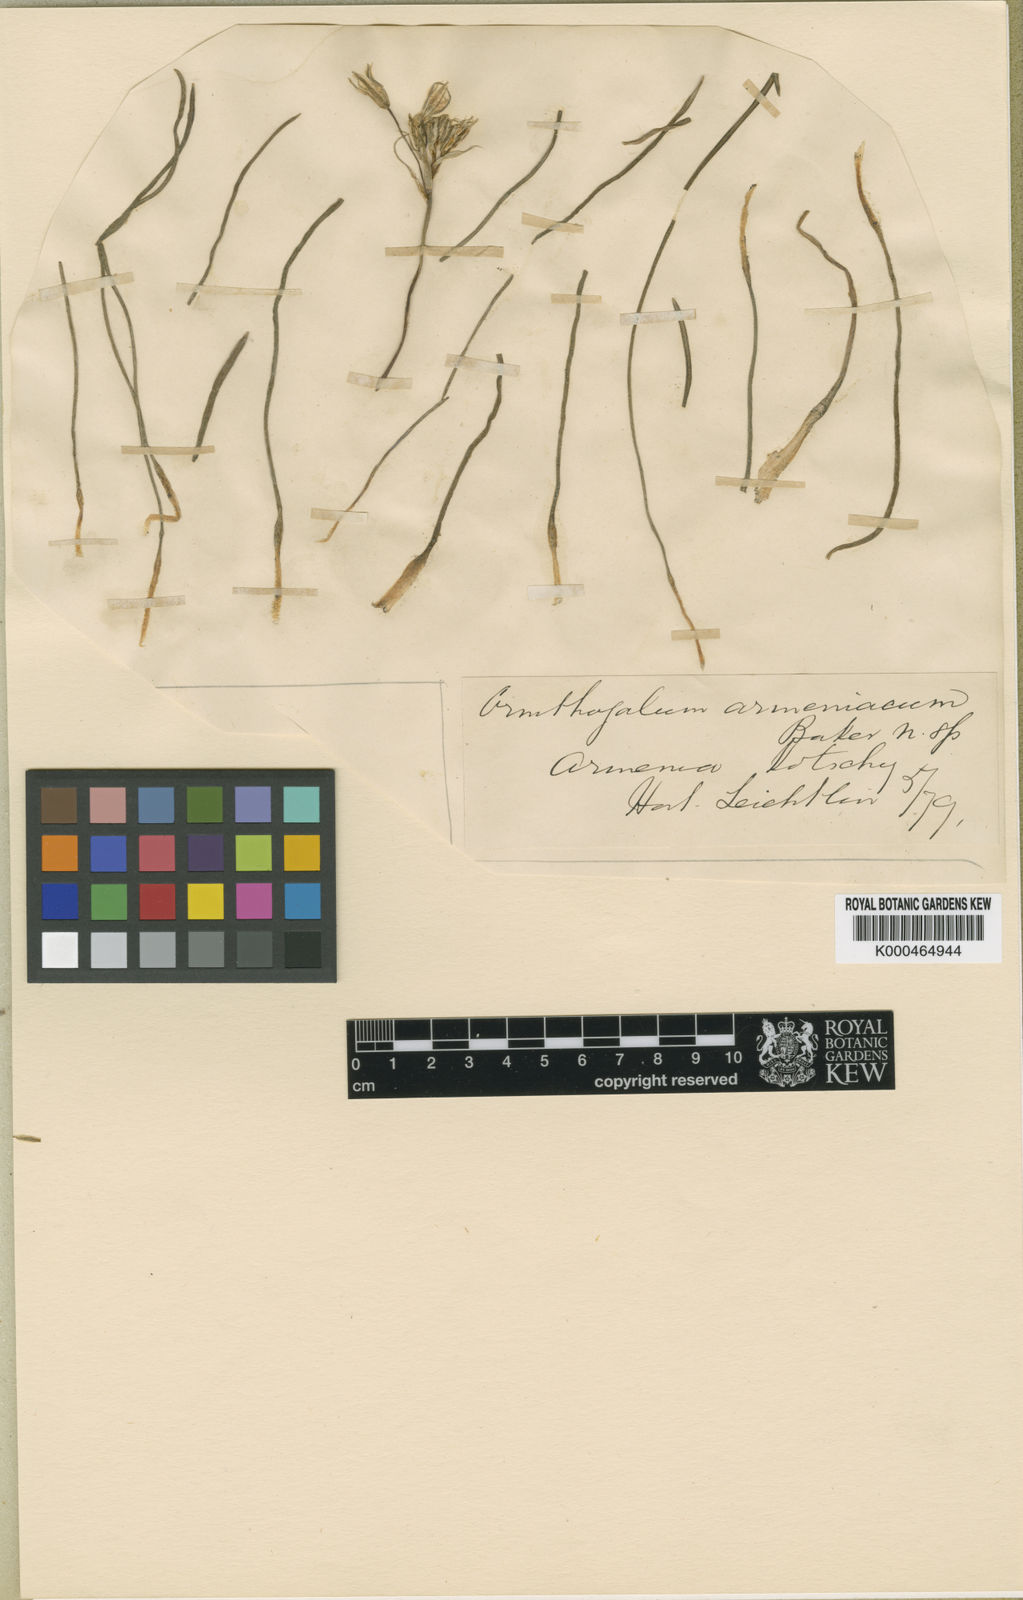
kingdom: Plantae
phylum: Tracheophyta
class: Liliopsida
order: Asparagales
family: Asparagaceae
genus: Ornithogalum
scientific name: Ornithogalum armeniacum
